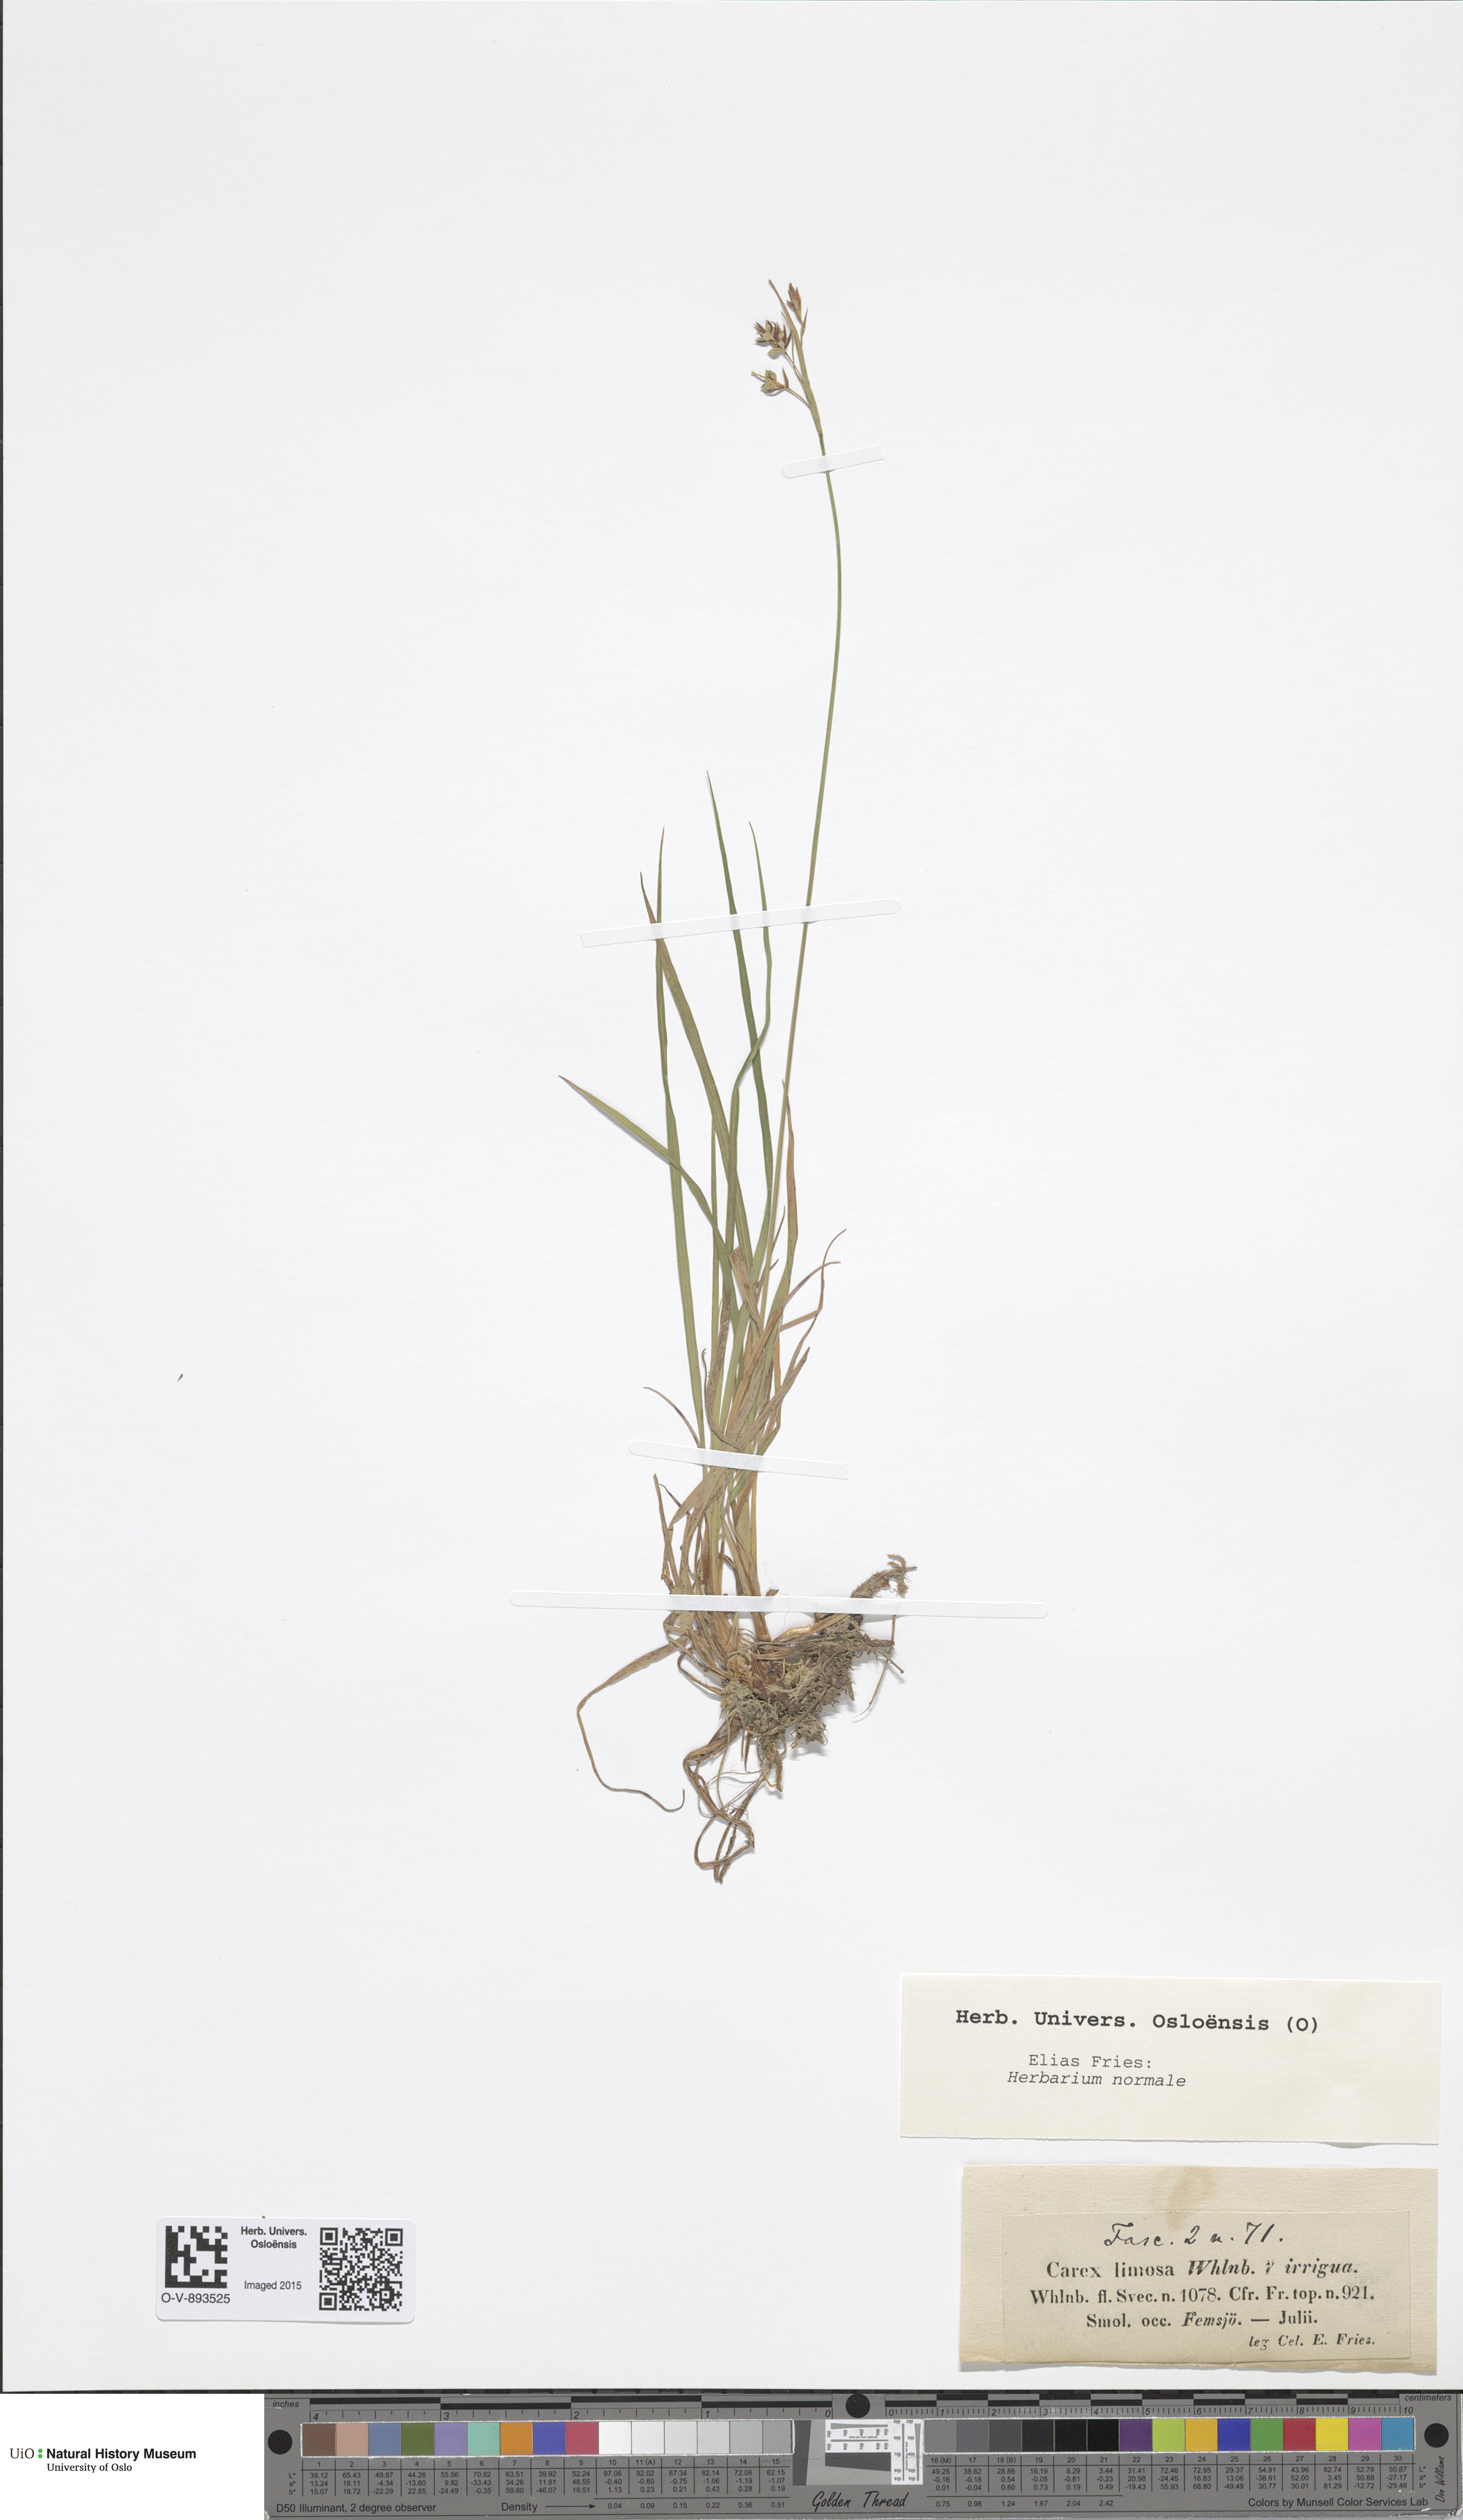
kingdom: Plantae
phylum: Tracheophyta
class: Liliopsida
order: Poales
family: Cyperaceae
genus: Carex
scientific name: Carex magellanica
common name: Bog sedge
